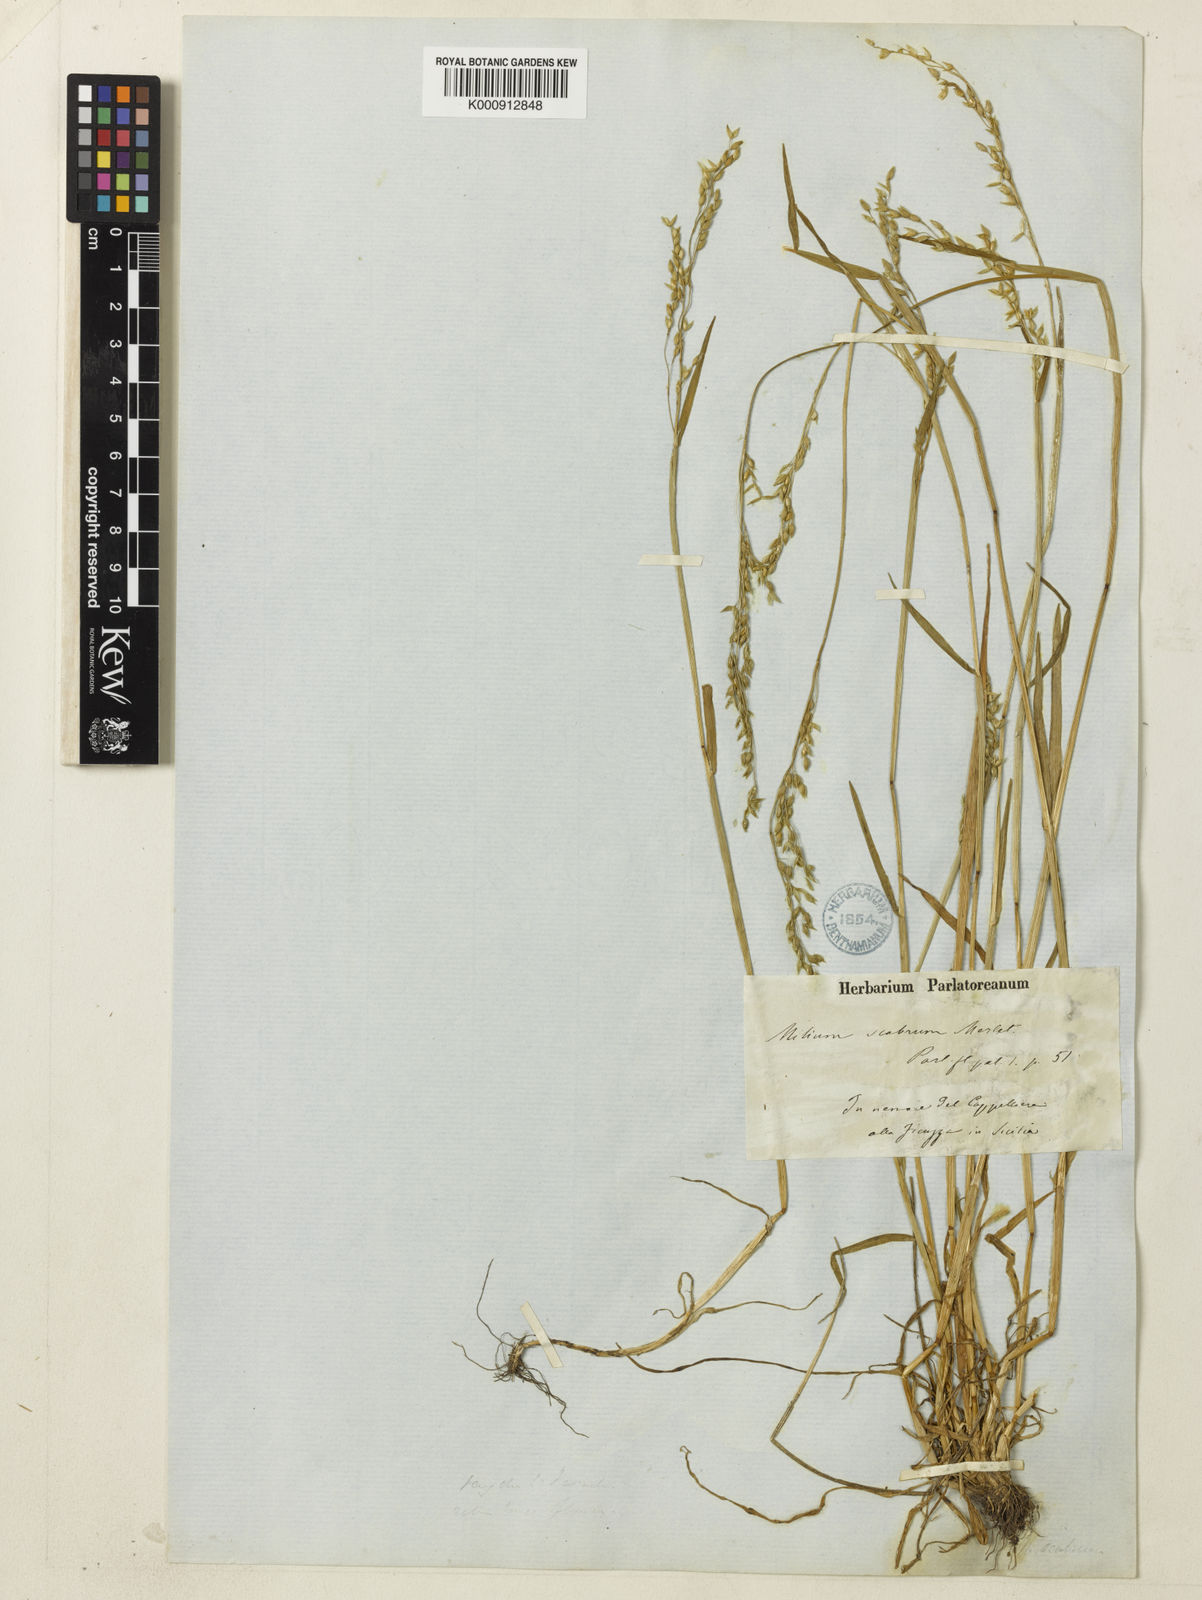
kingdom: Plantae
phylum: Tracheophyta
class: Liliopsida
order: Poales
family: Poaceae
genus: Milium
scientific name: Milium vernale
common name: Early millet
